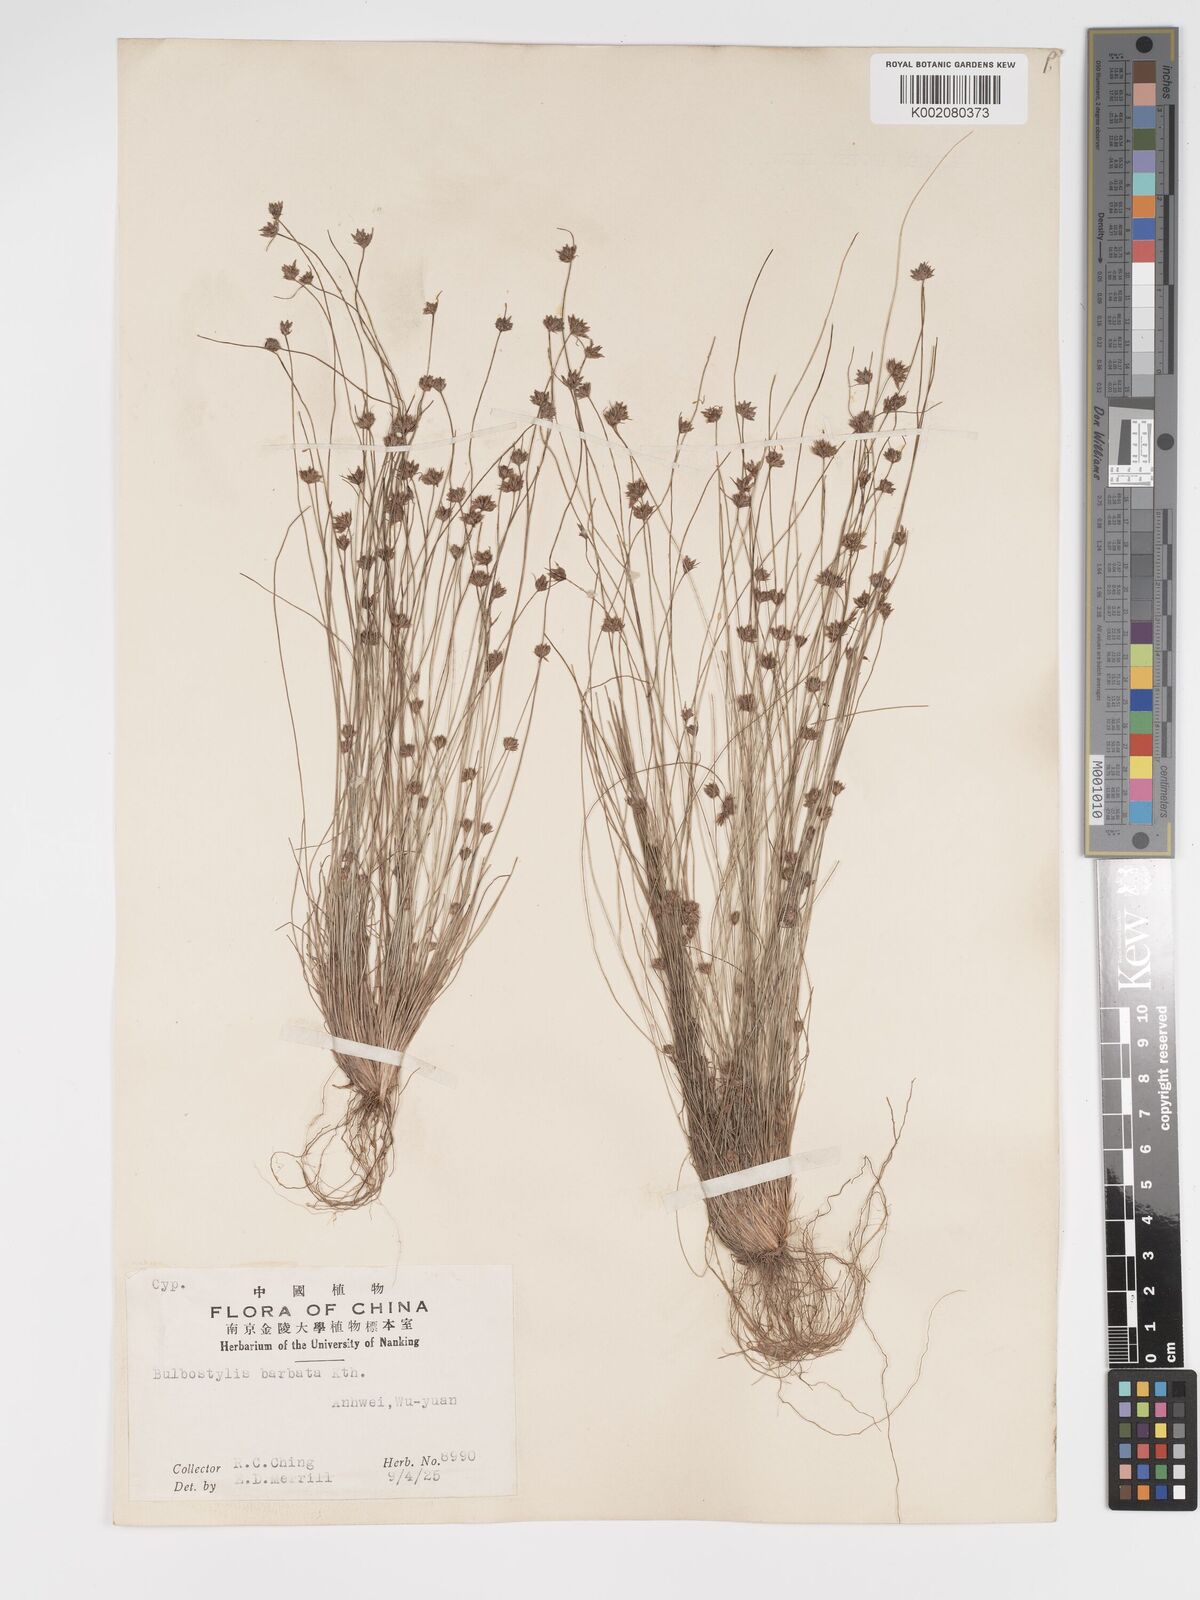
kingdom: Plantae
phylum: Tracheophyta
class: Liliopsida
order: Poales
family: Cyperaceae
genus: Bulbostylis
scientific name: Bulbostylis barbata
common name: Watergrass
